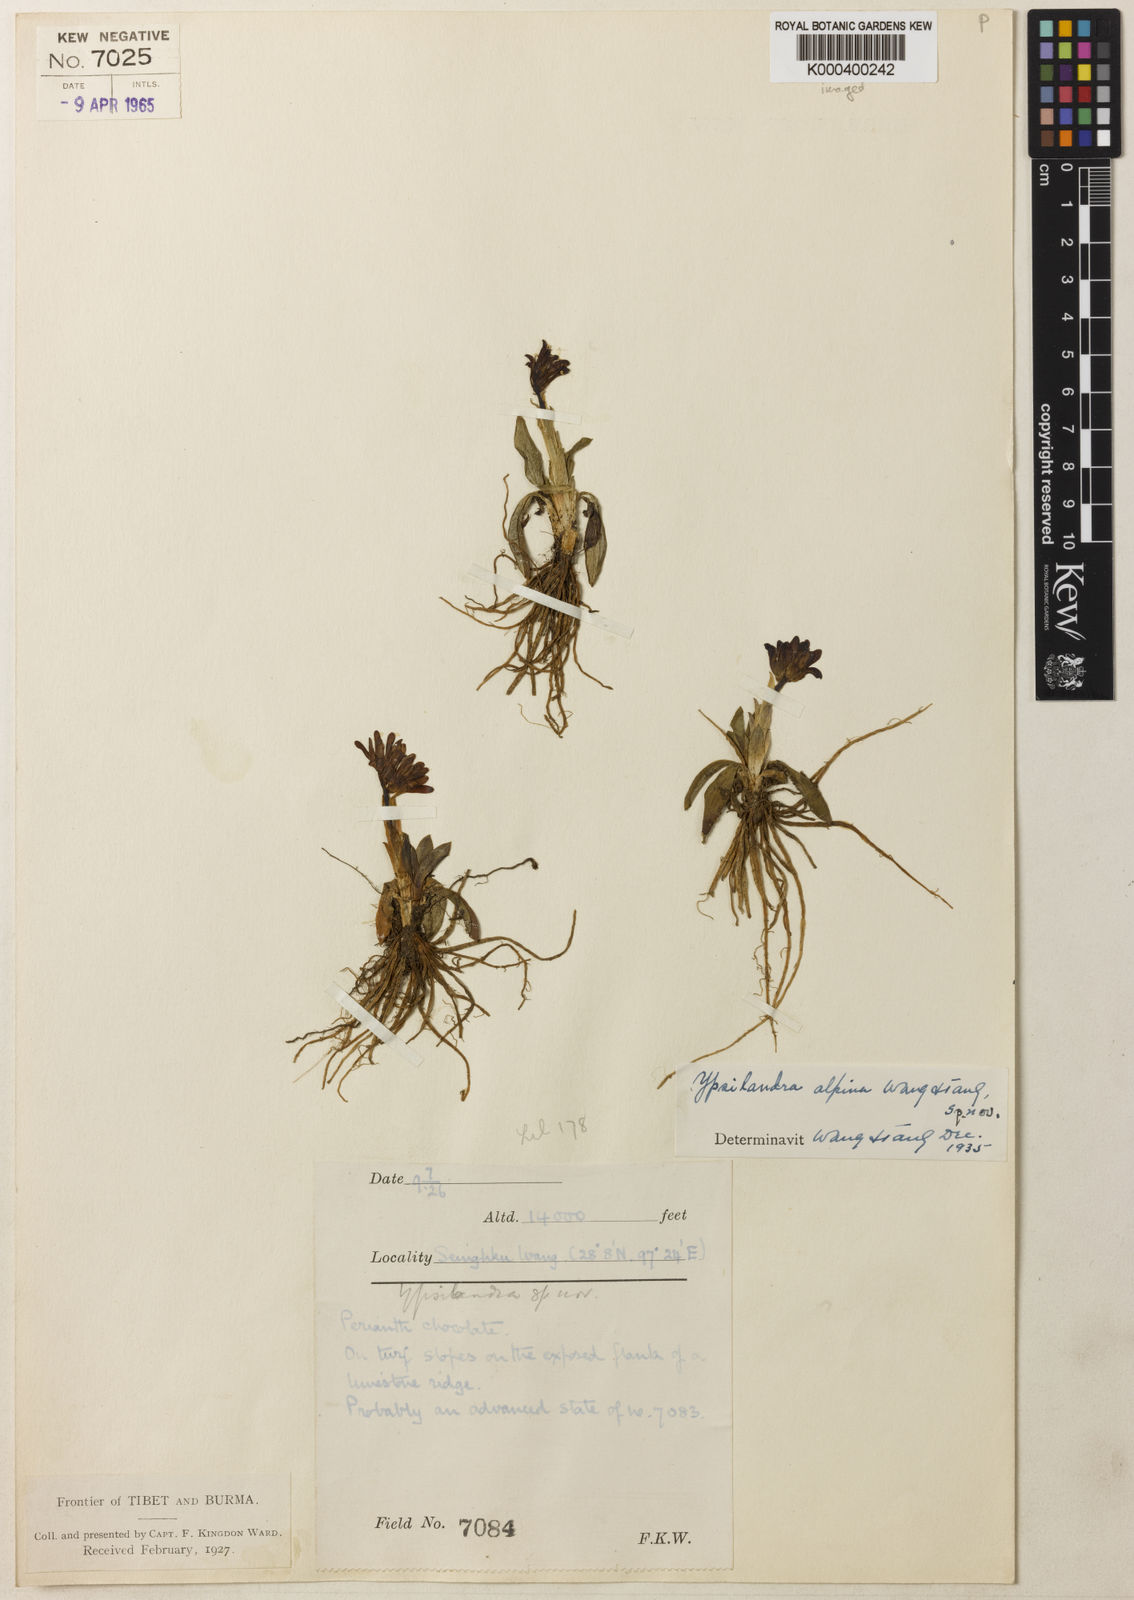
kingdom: Plantae
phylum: Tracheophyta
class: Liliopsida
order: Liliales
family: Melanthiaceae
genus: Helonias
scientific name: Helonias alpina
